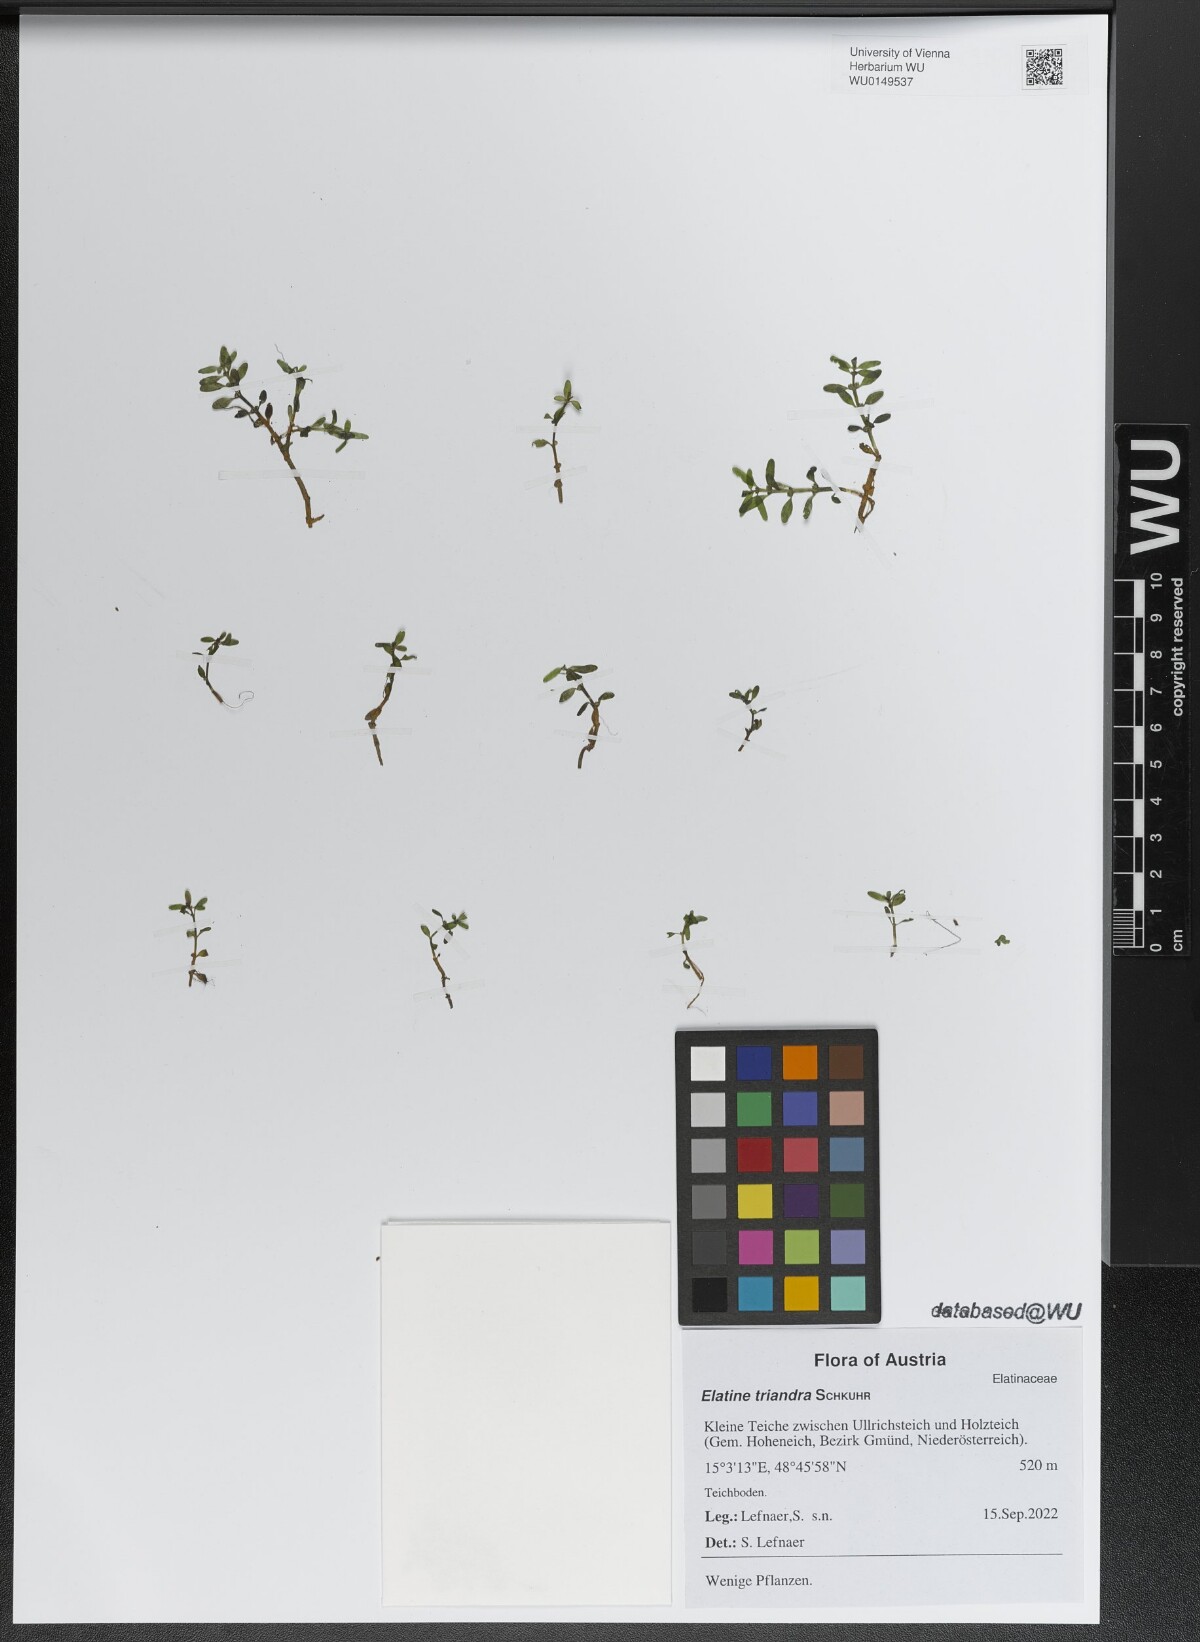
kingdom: Plantae
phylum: Tracheophyta
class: Magnoliopsida
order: Malpighiales
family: Elatinaceae
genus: Elatine
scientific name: Elatine triandra
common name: Three-stamened waterwort
